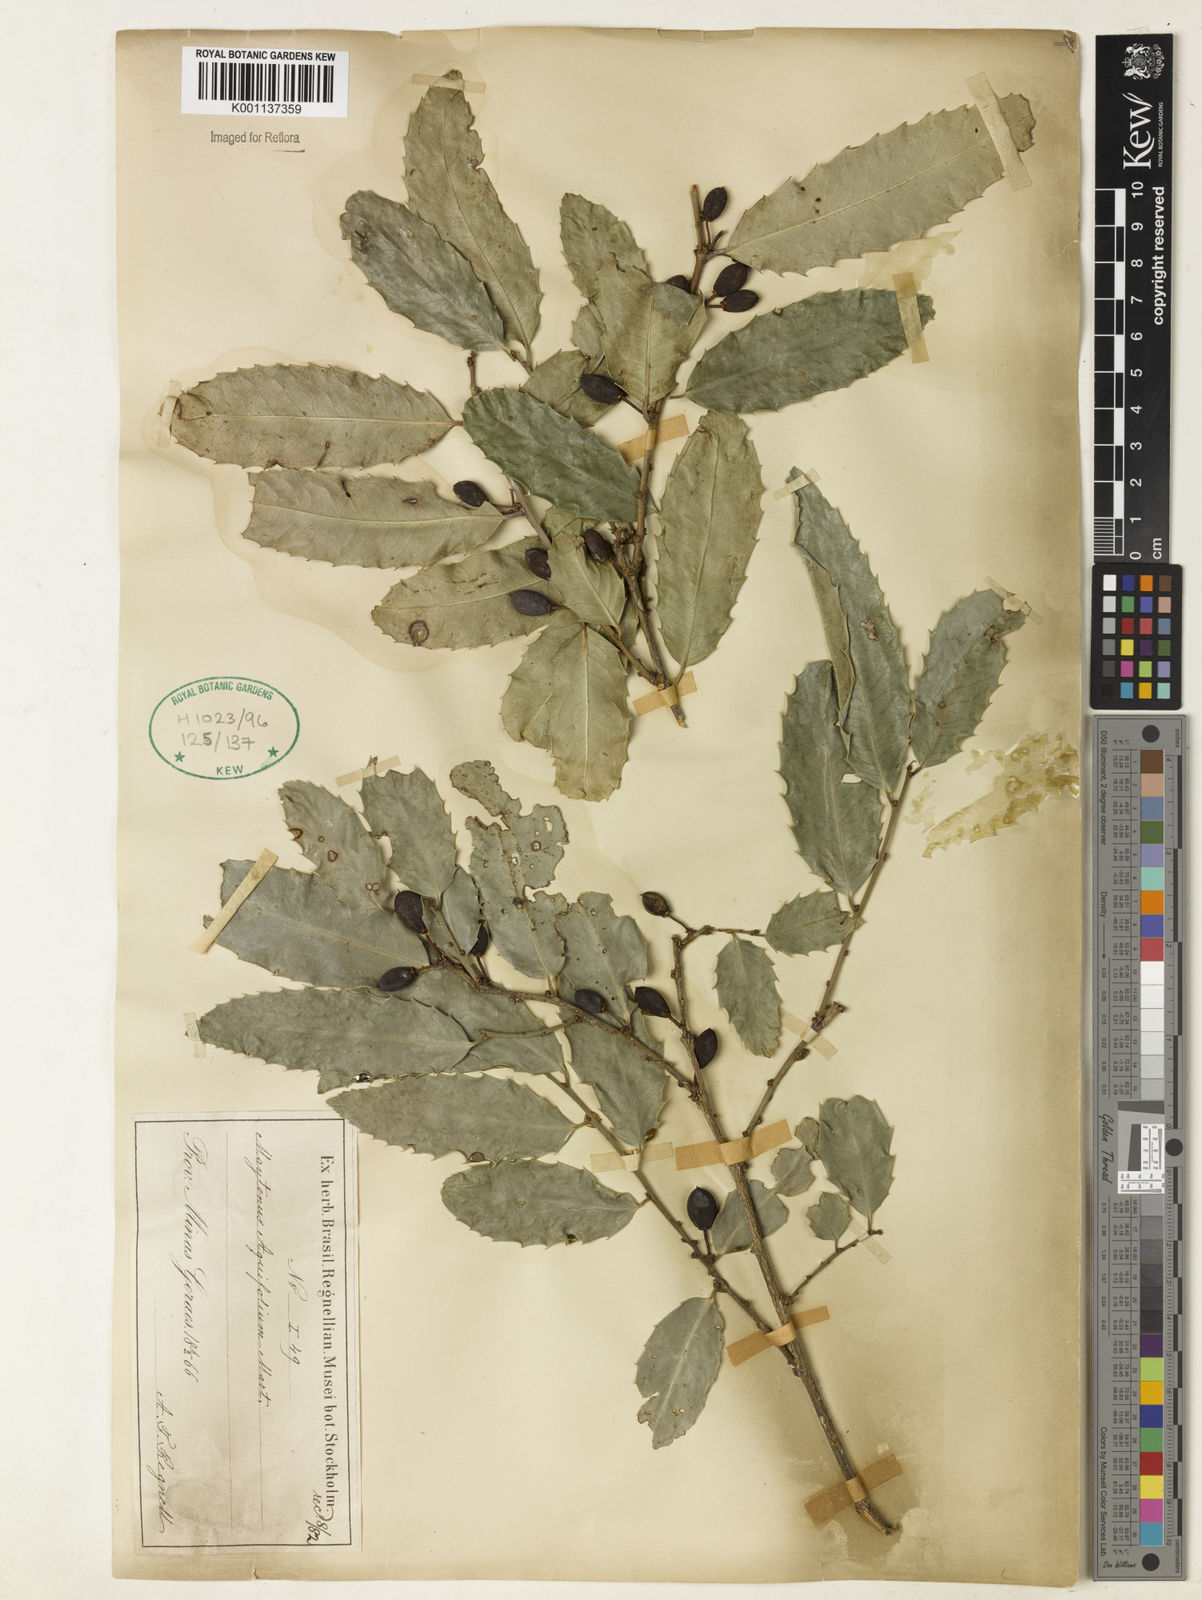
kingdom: Plantae
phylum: Tracheophyta
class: Magnoliopsida
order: Celastrales
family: Celastraceae
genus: Monteverdia
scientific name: Monteverdia aquifolium
